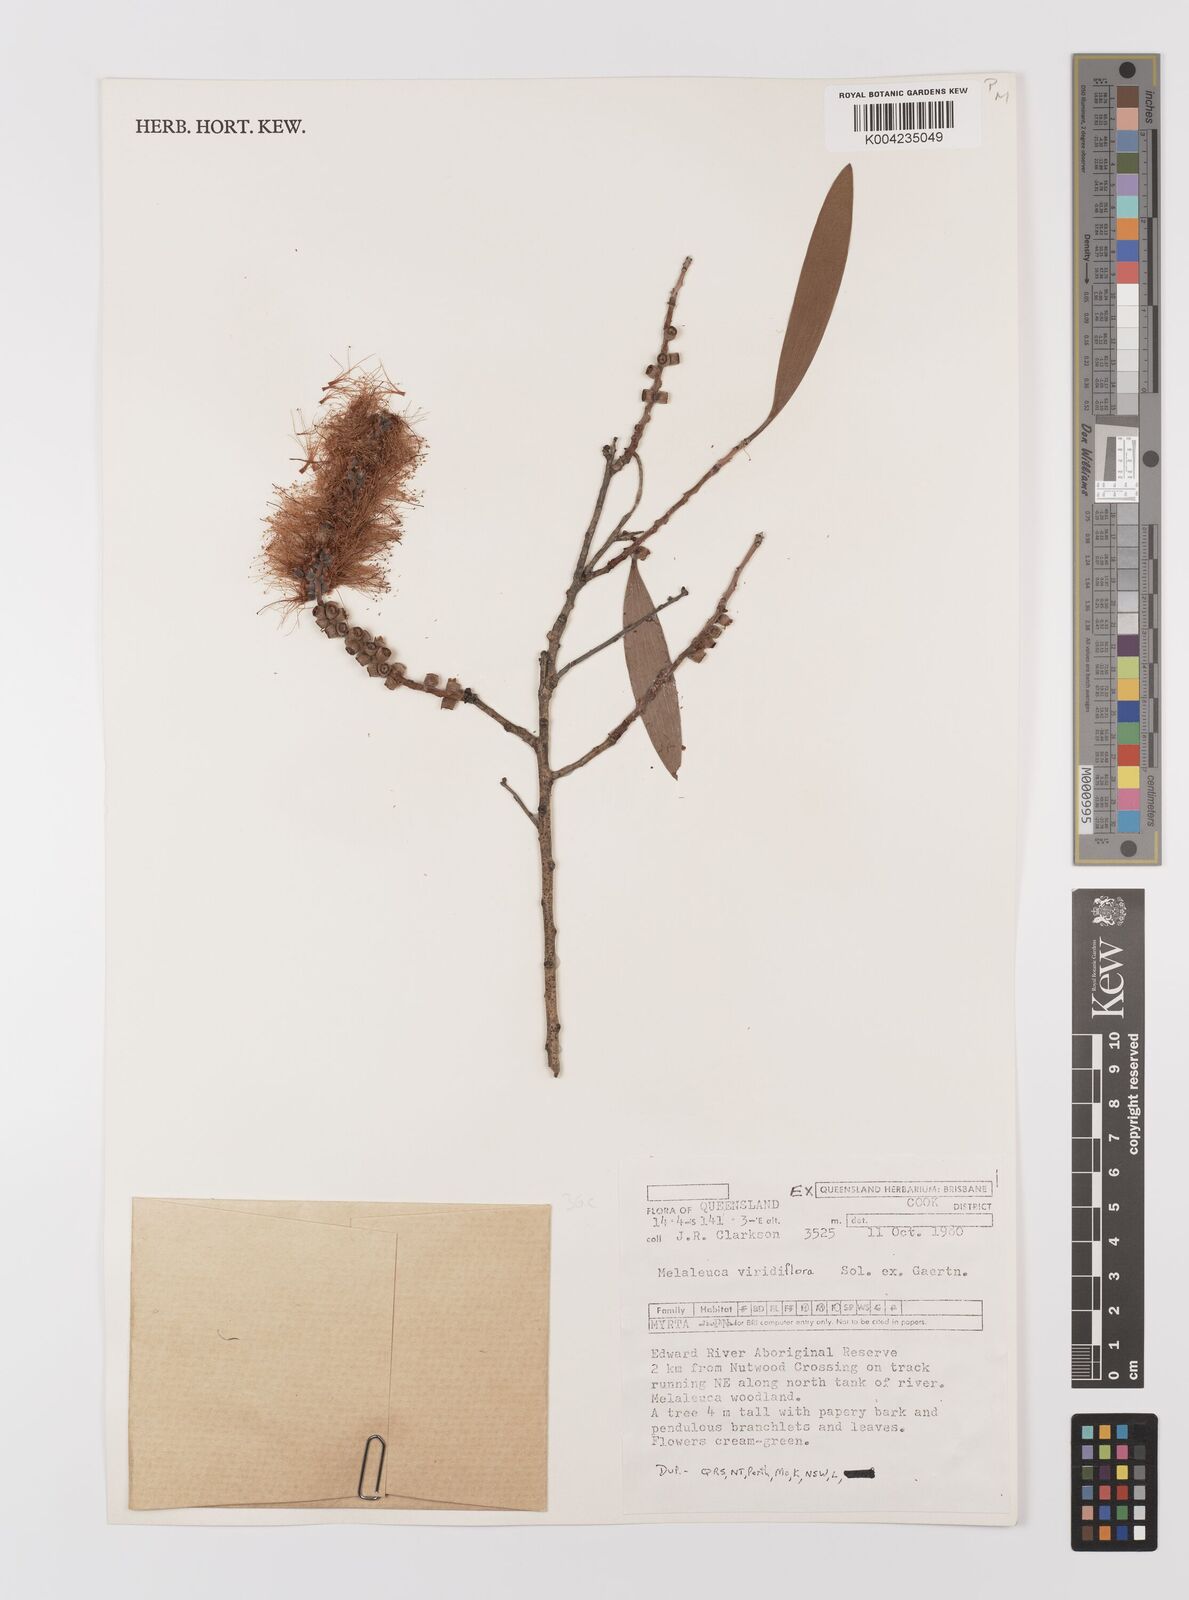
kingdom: Plantae
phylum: Tracheophyta
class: Magnoliopsida
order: Myrtales
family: Myrtaceae
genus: Melaleuca
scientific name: Melaleuca viridiflora
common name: Brown-leaved paperbark
